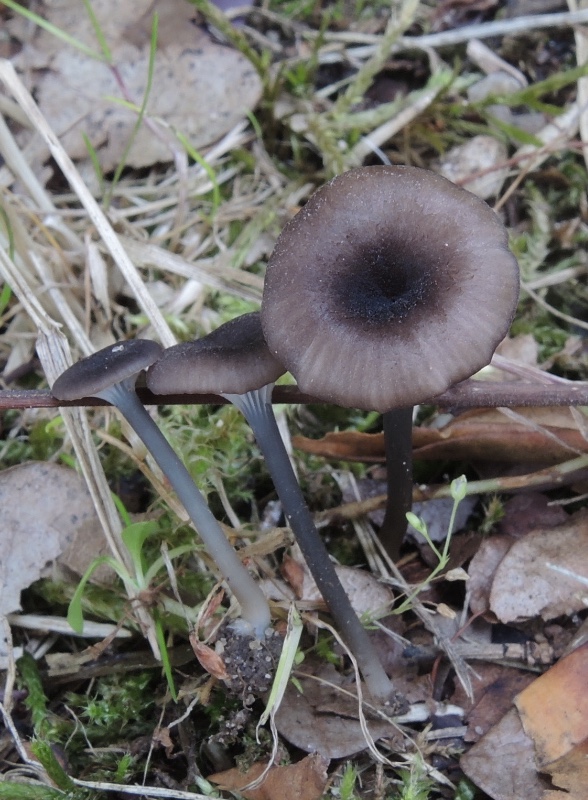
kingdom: Fungi
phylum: Basidiomycota
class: Agaricomycetes
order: Agaricales
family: Entolomataceae
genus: Entoloma
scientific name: Entoloma incarnatofuscescens
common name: tragt-rødblad
